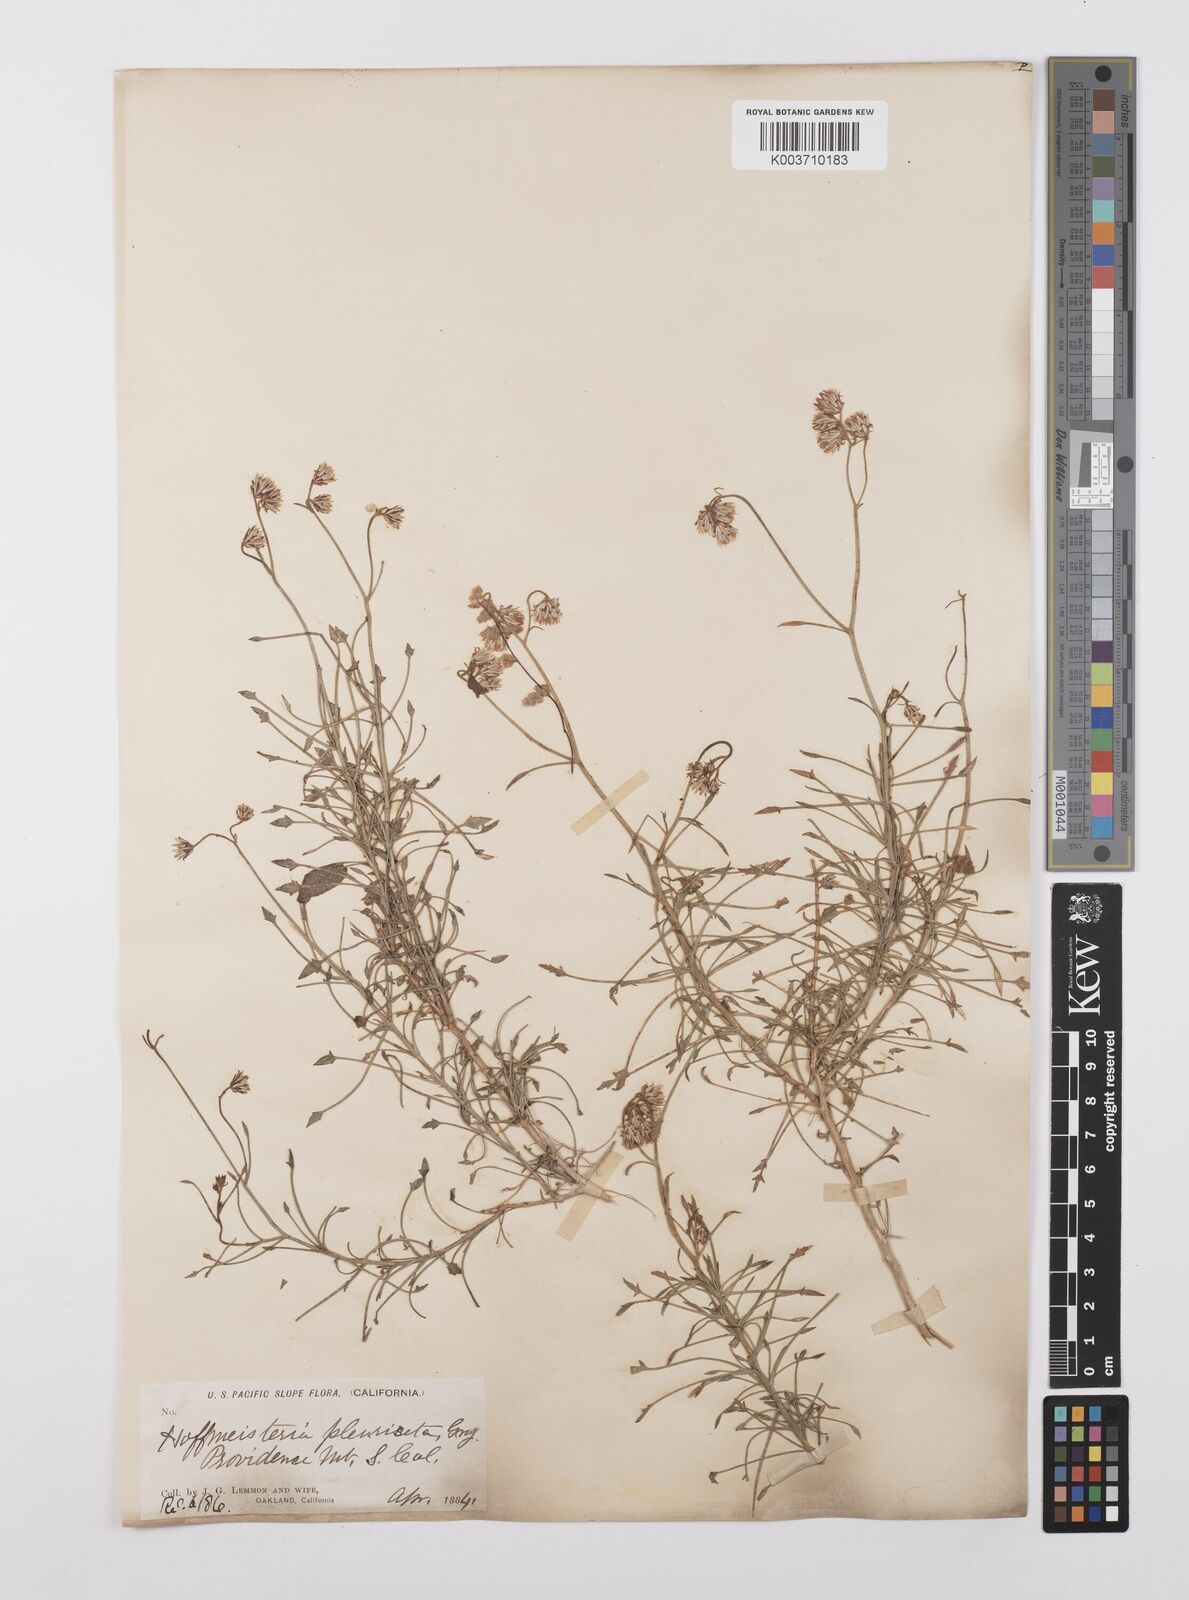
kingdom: Plantae
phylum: Tracheophyta
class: Magnoliopsida
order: Asterales
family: Asteraceae
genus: Pleurocoronis
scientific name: Pleurocoronis pluriseta
